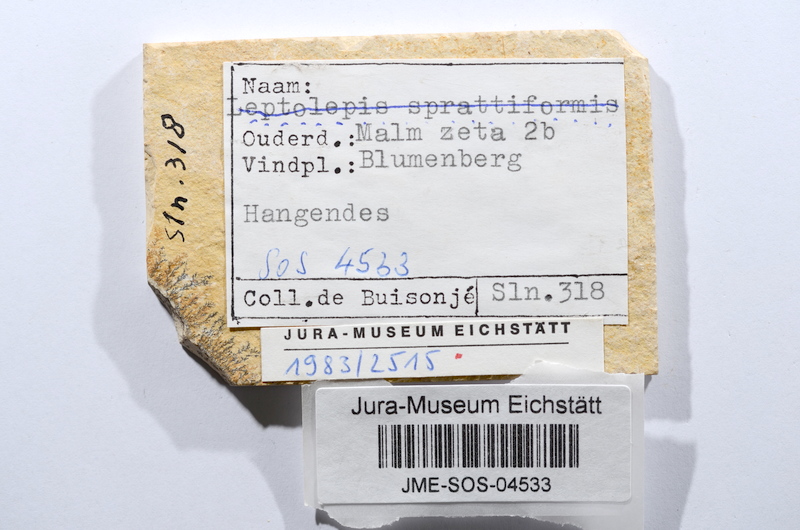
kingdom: Animalia
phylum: Chordata
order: Salmoniformes
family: Orthogonikleithridae
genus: Leptolepides
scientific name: Leptolepides sprattiformis
